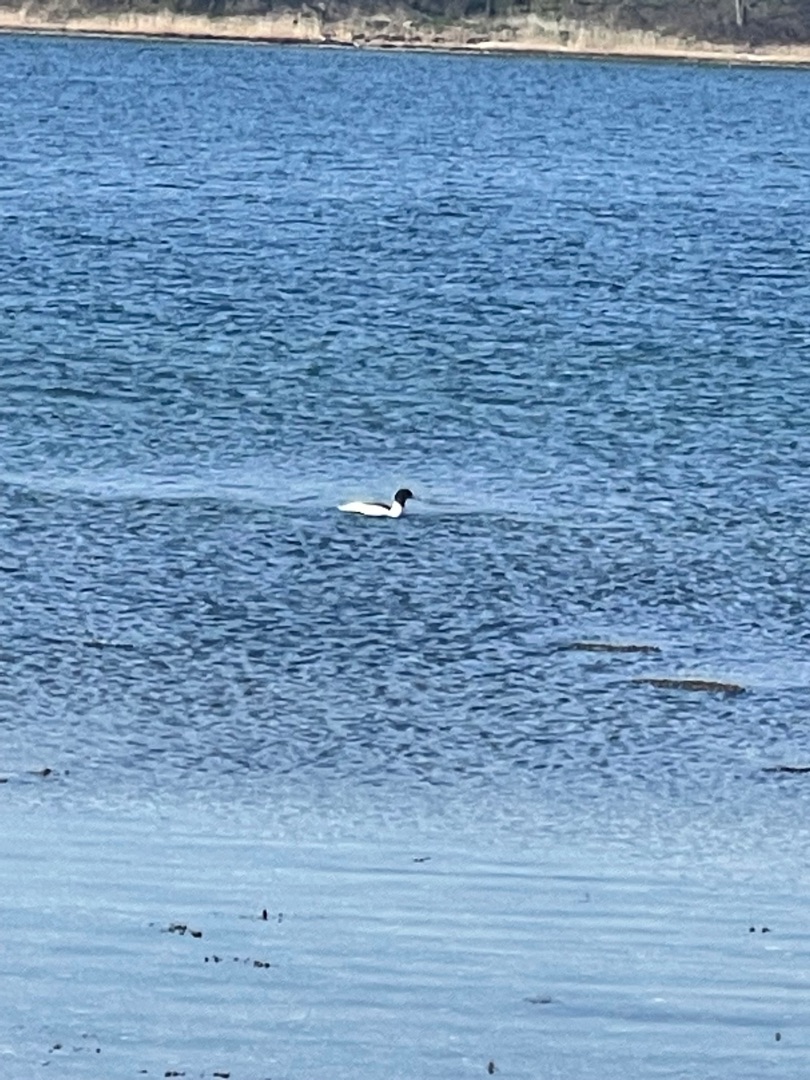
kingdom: Animalia
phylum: Chordata
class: Aves
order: Anseriformes
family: Anatidae
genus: Mergus
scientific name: Mergus merganser
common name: Stor skallesluger
